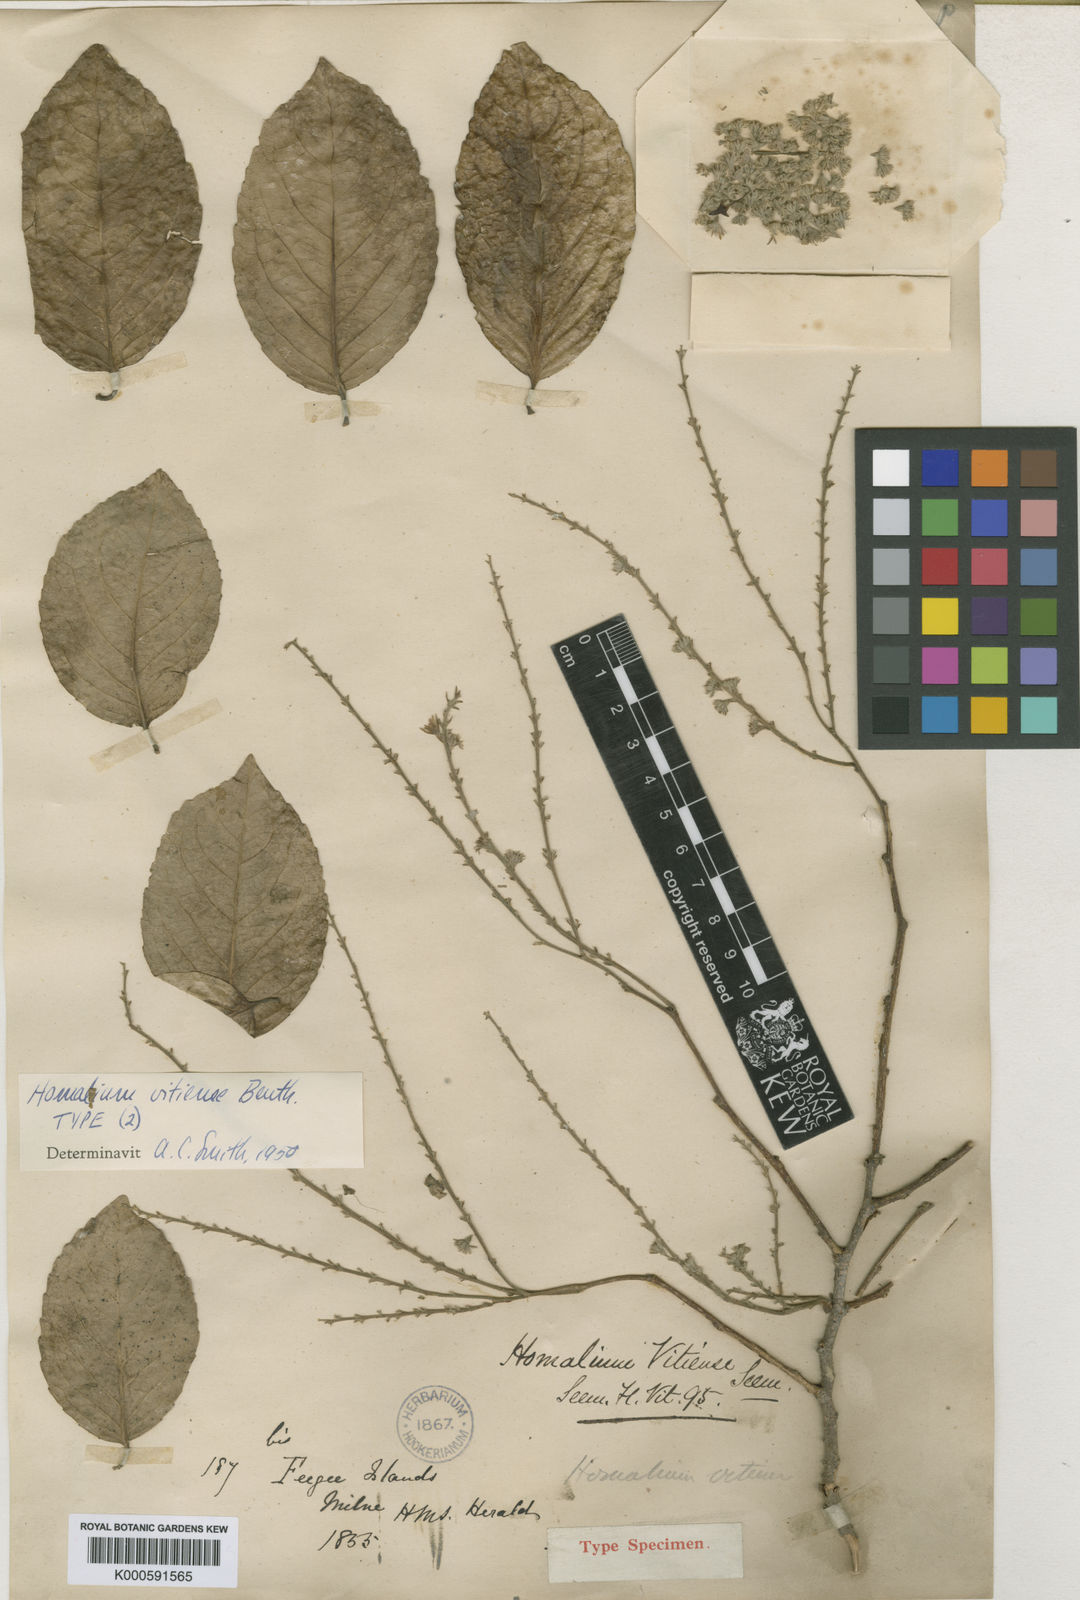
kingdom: Plantae
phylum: Tracheophyta
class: Magnoliopsida
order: Malpighiales
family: Salicaceae
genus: Homalium
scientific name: Homalium vitiense
